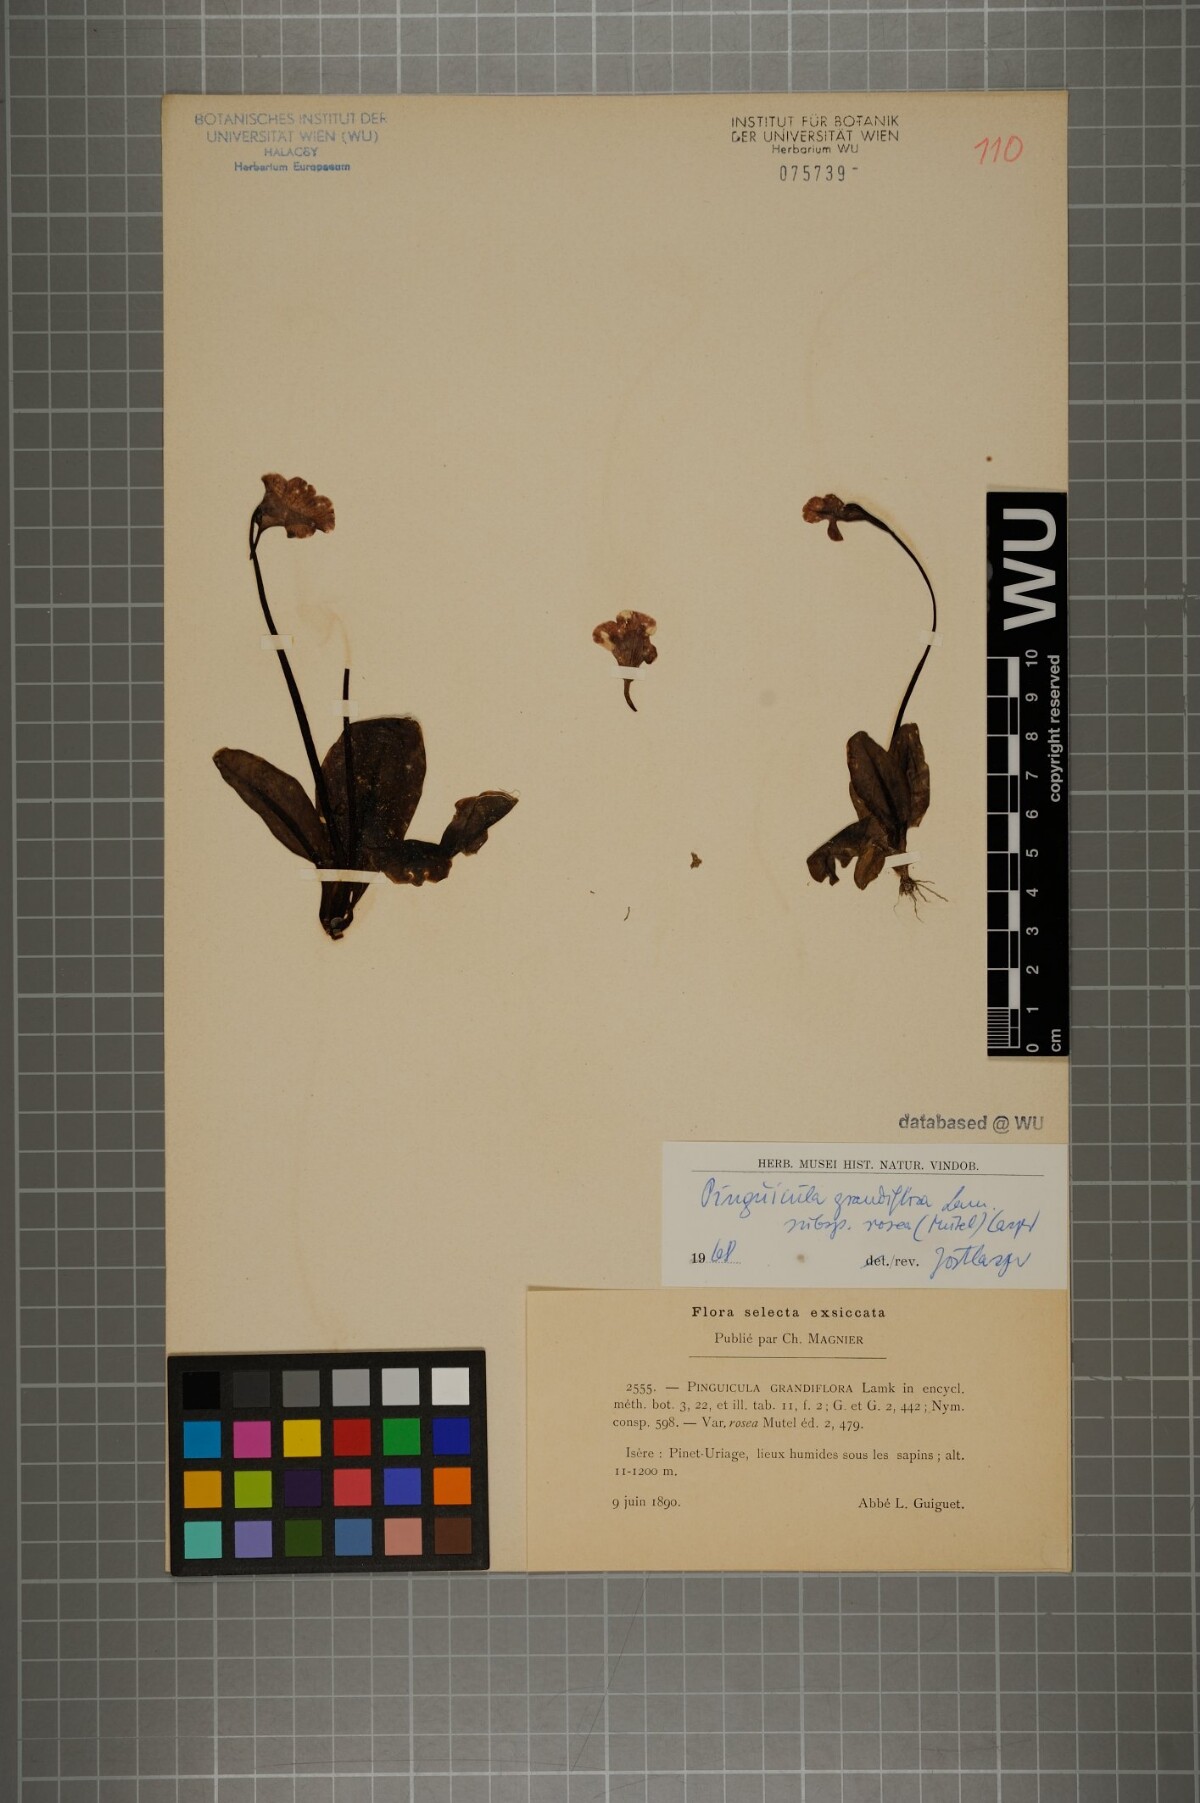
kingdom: Plantae
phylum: Tracheophyta
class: Magnoliopsida
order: Lamiales
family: Lentibulariaceae
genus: Pinguicula
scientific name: Pinguicula grandiflora
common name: Large-flowered butterwort
